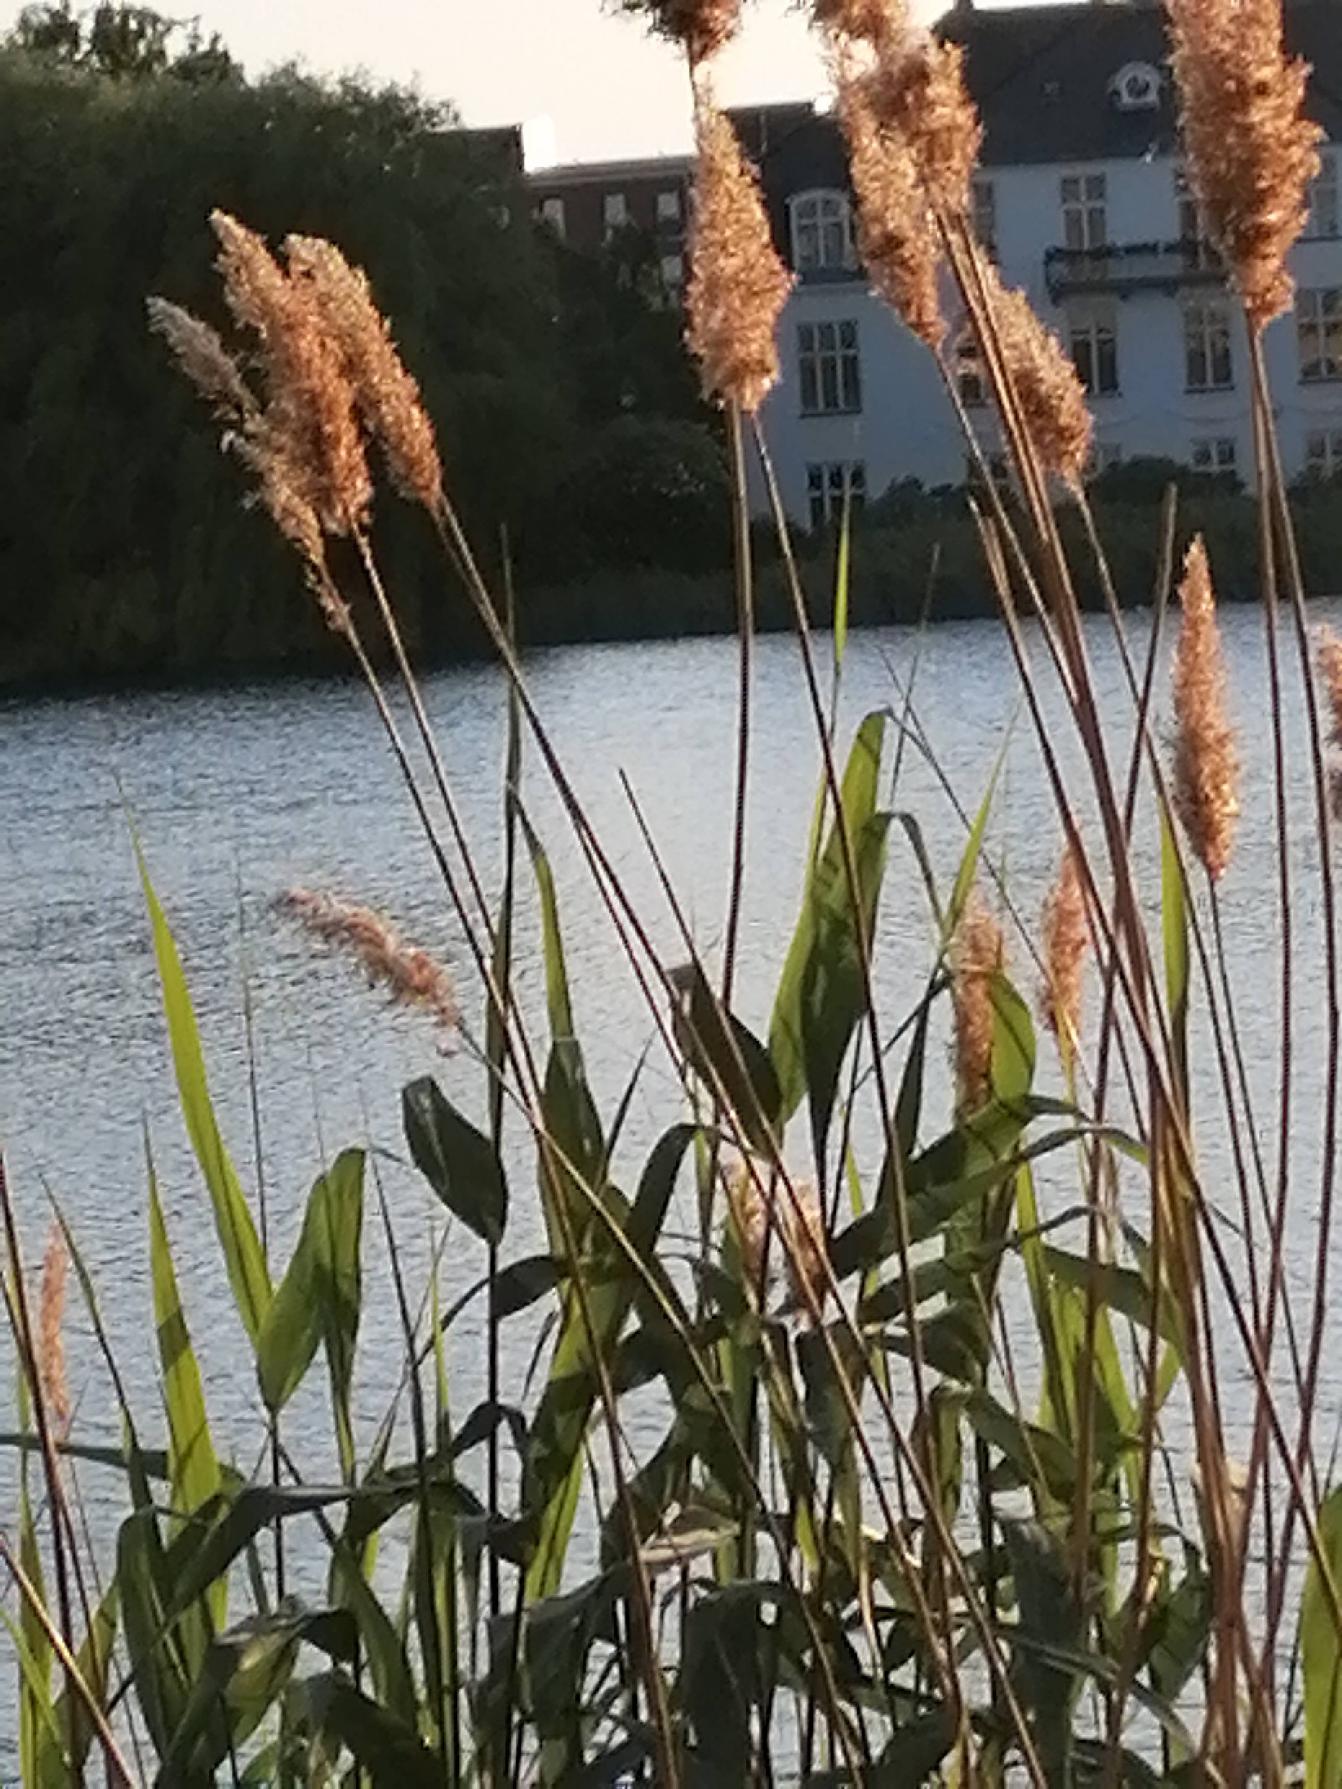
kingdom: Plantae
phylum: Tracheophyta
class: Liliopsida
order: Poales
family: Poaceae
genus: Phragmites
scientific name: Phragmites australis
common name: Tagrør
